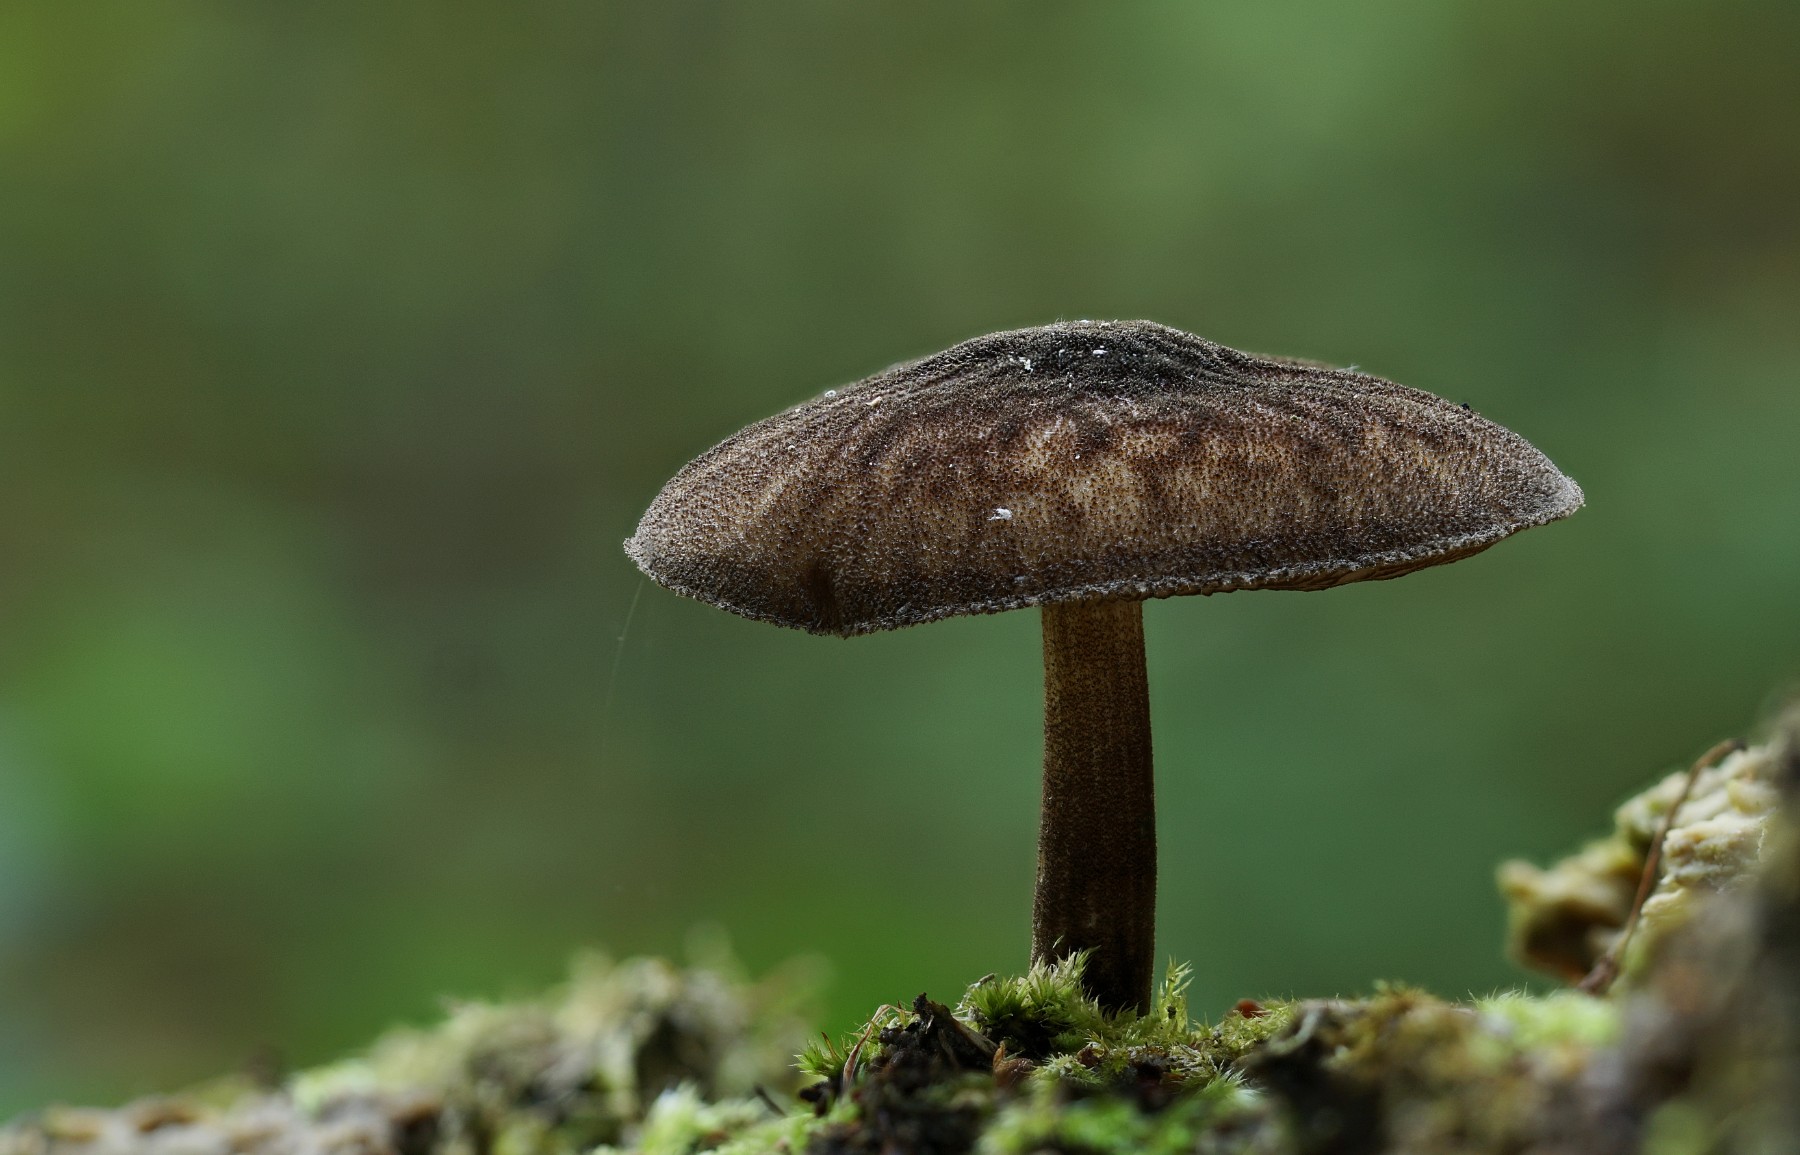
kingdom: Fungi
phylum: Basidiomycota
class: Agaricomycetes
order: Agaricales
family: Pluteaceae
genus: Pluteus
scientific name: Pluteus umbrosus
